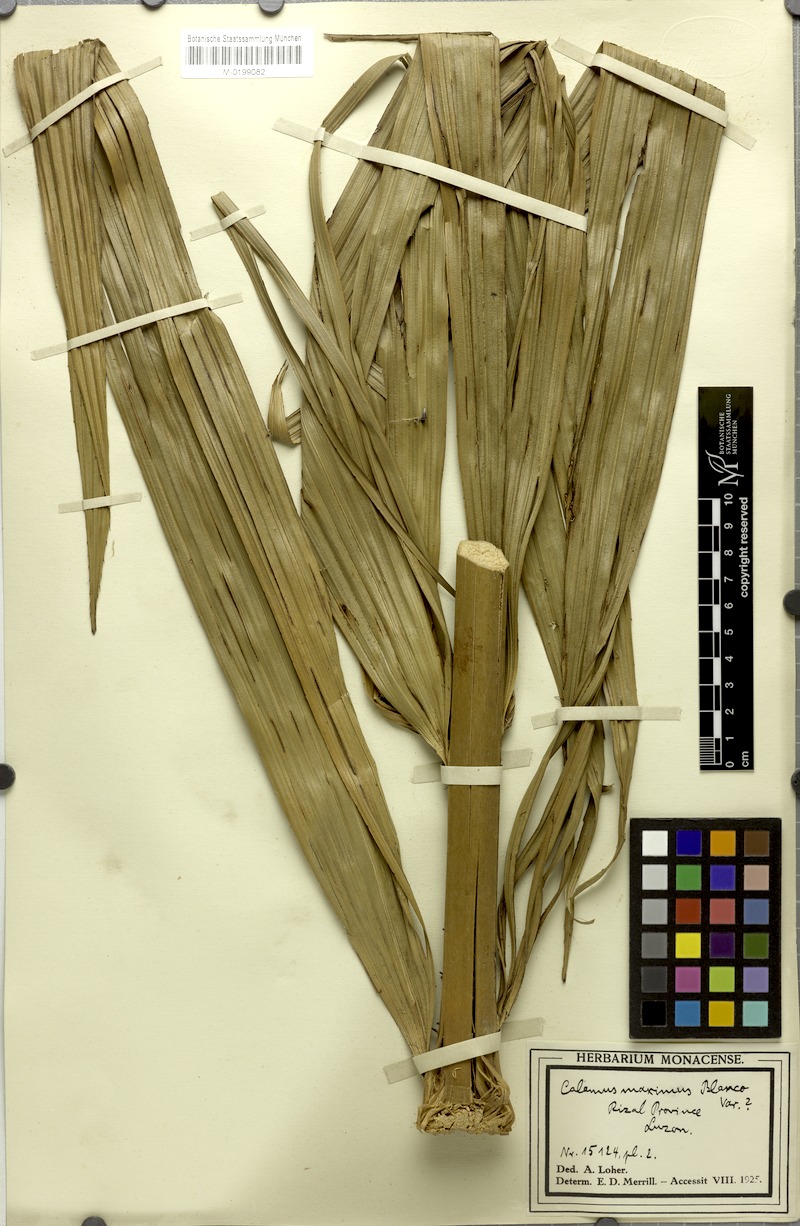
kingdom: Plantae
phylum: Tracheophyta
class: Liliopsida
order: Arecales
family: Arecaceae
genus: Calamus
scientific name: Calamus moseleyanus
